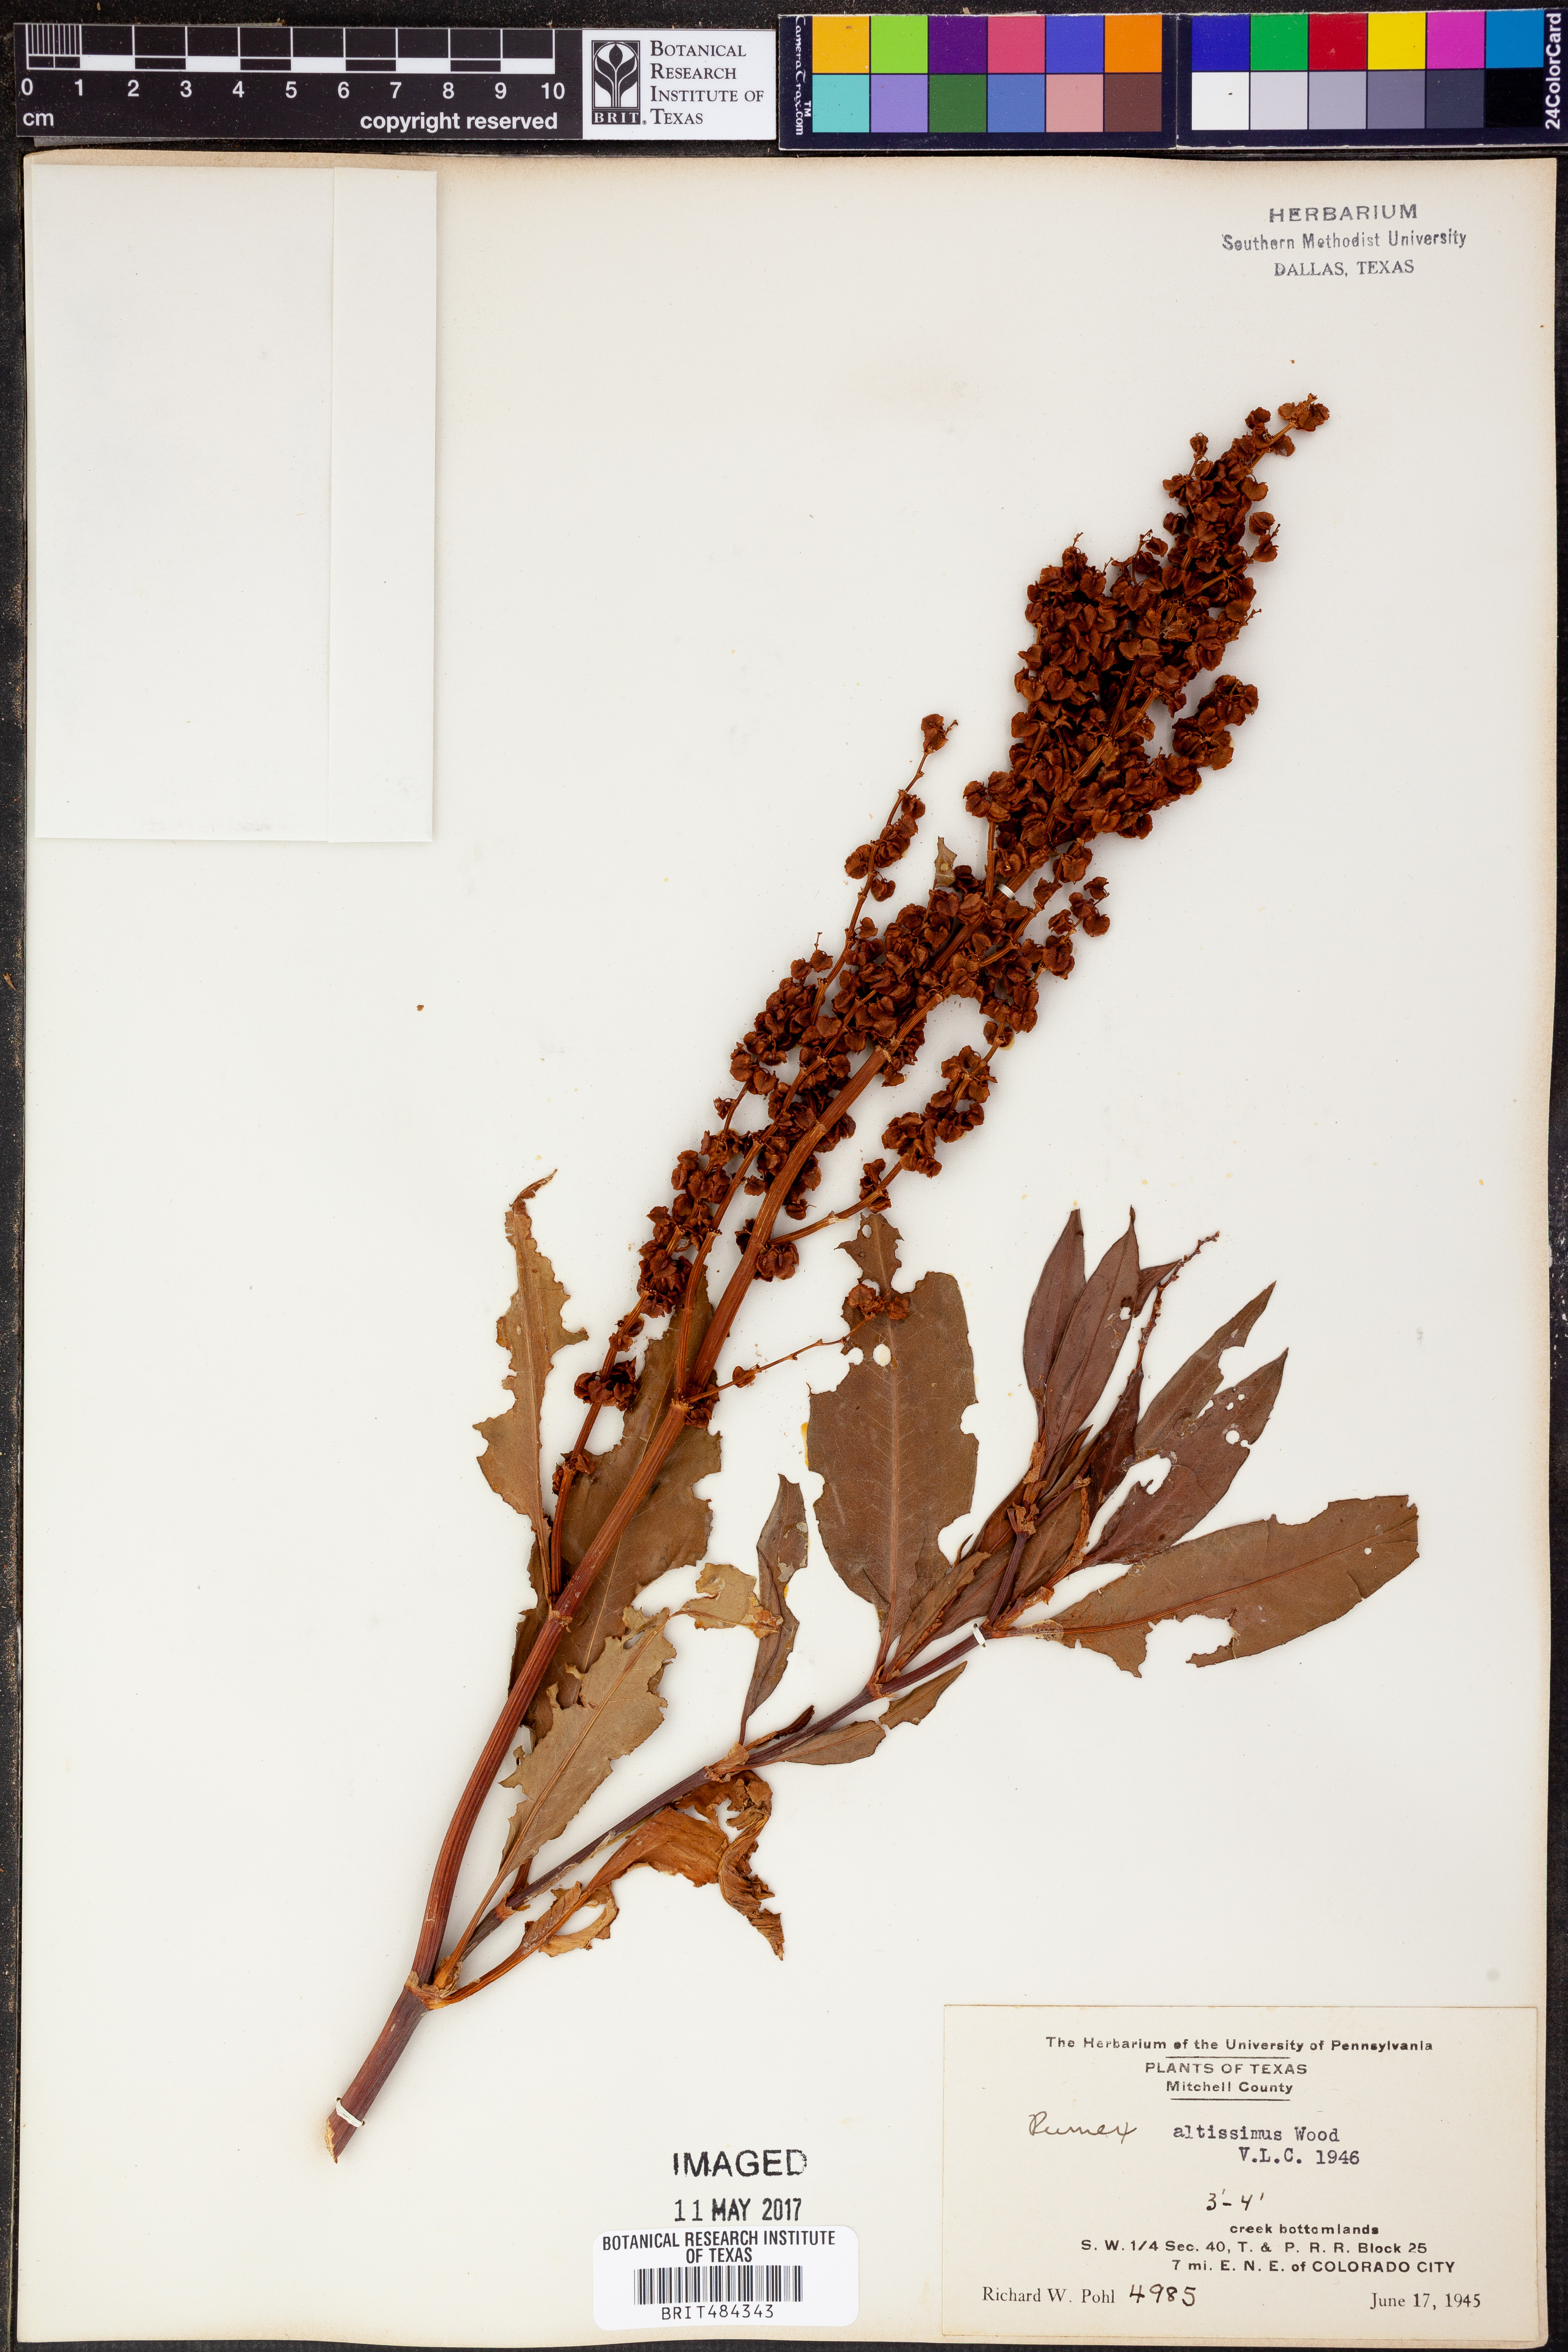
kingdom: Plantae
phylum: Tracheophyta
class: Magnoliopsida
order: Caryophyllales
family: Polygonaceae
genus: Rumex
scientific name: Rumex altissimus
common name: Smooth dock
